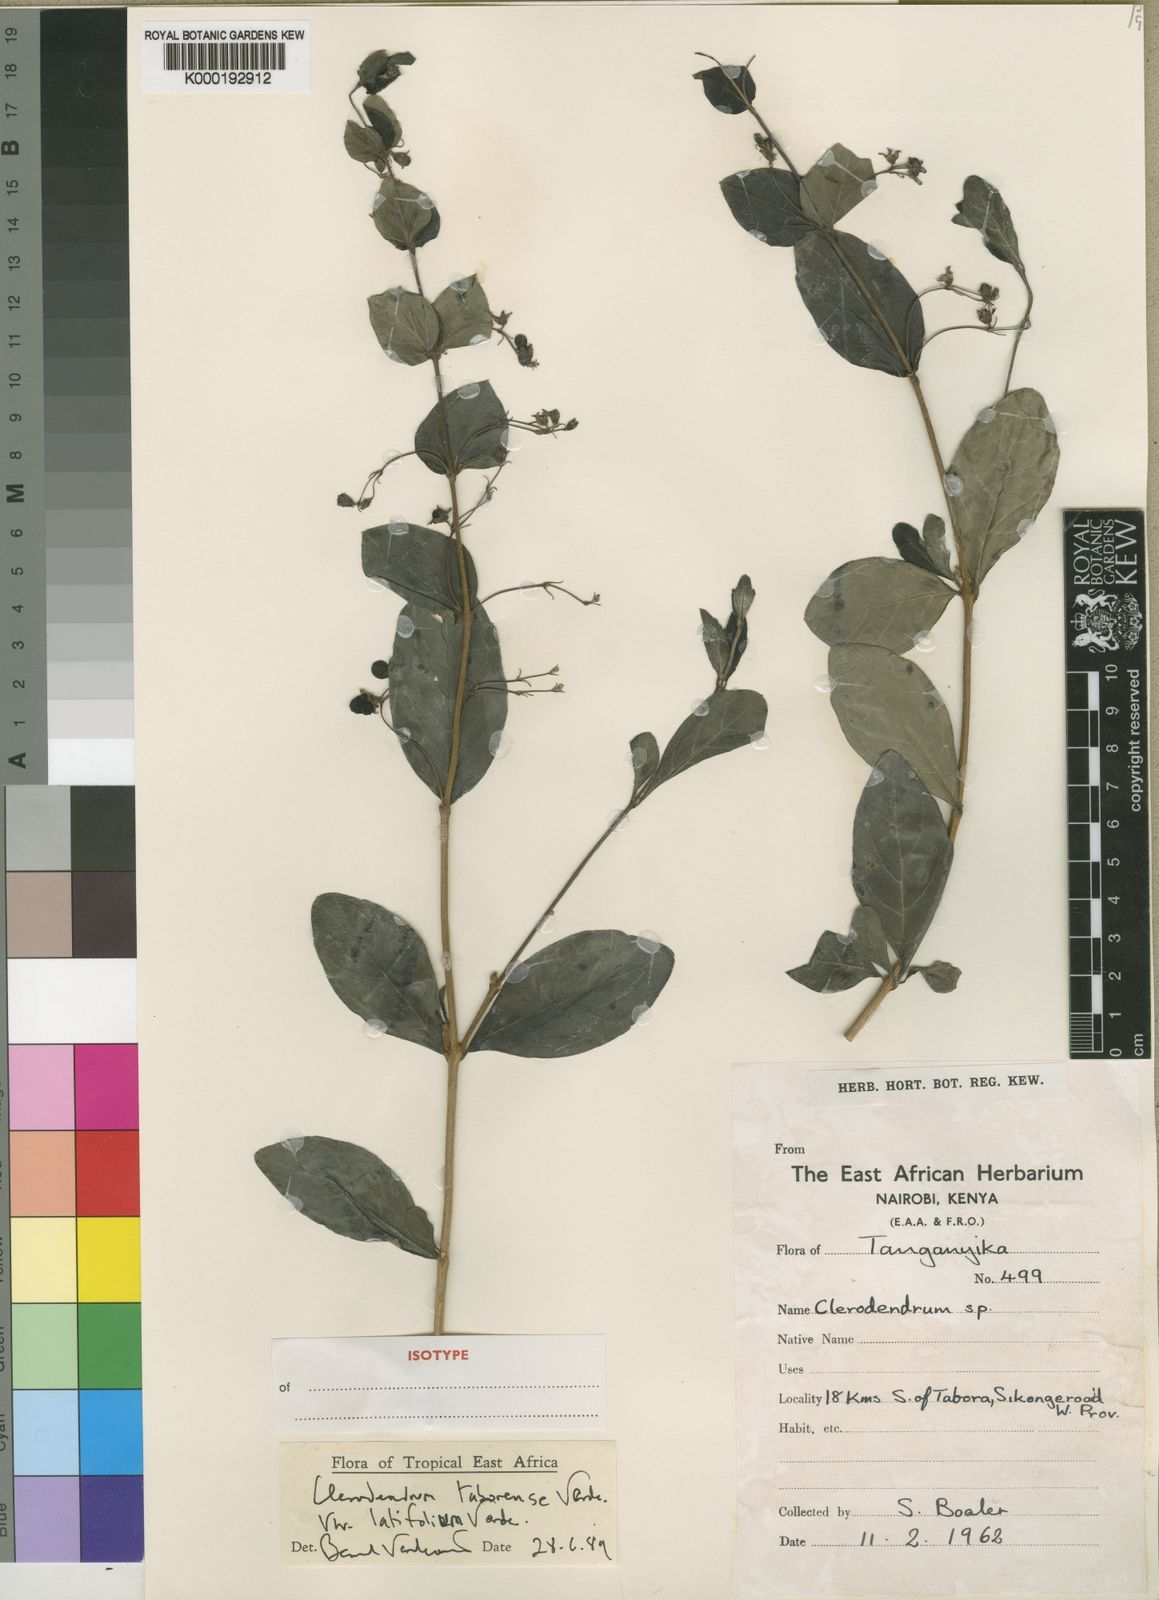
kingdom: Plantae
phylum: Tracheophyta
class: Magnoliopsida
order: Lamiales
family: Lamiaceae
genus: Rotheca
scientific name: Rotheca taborensis
